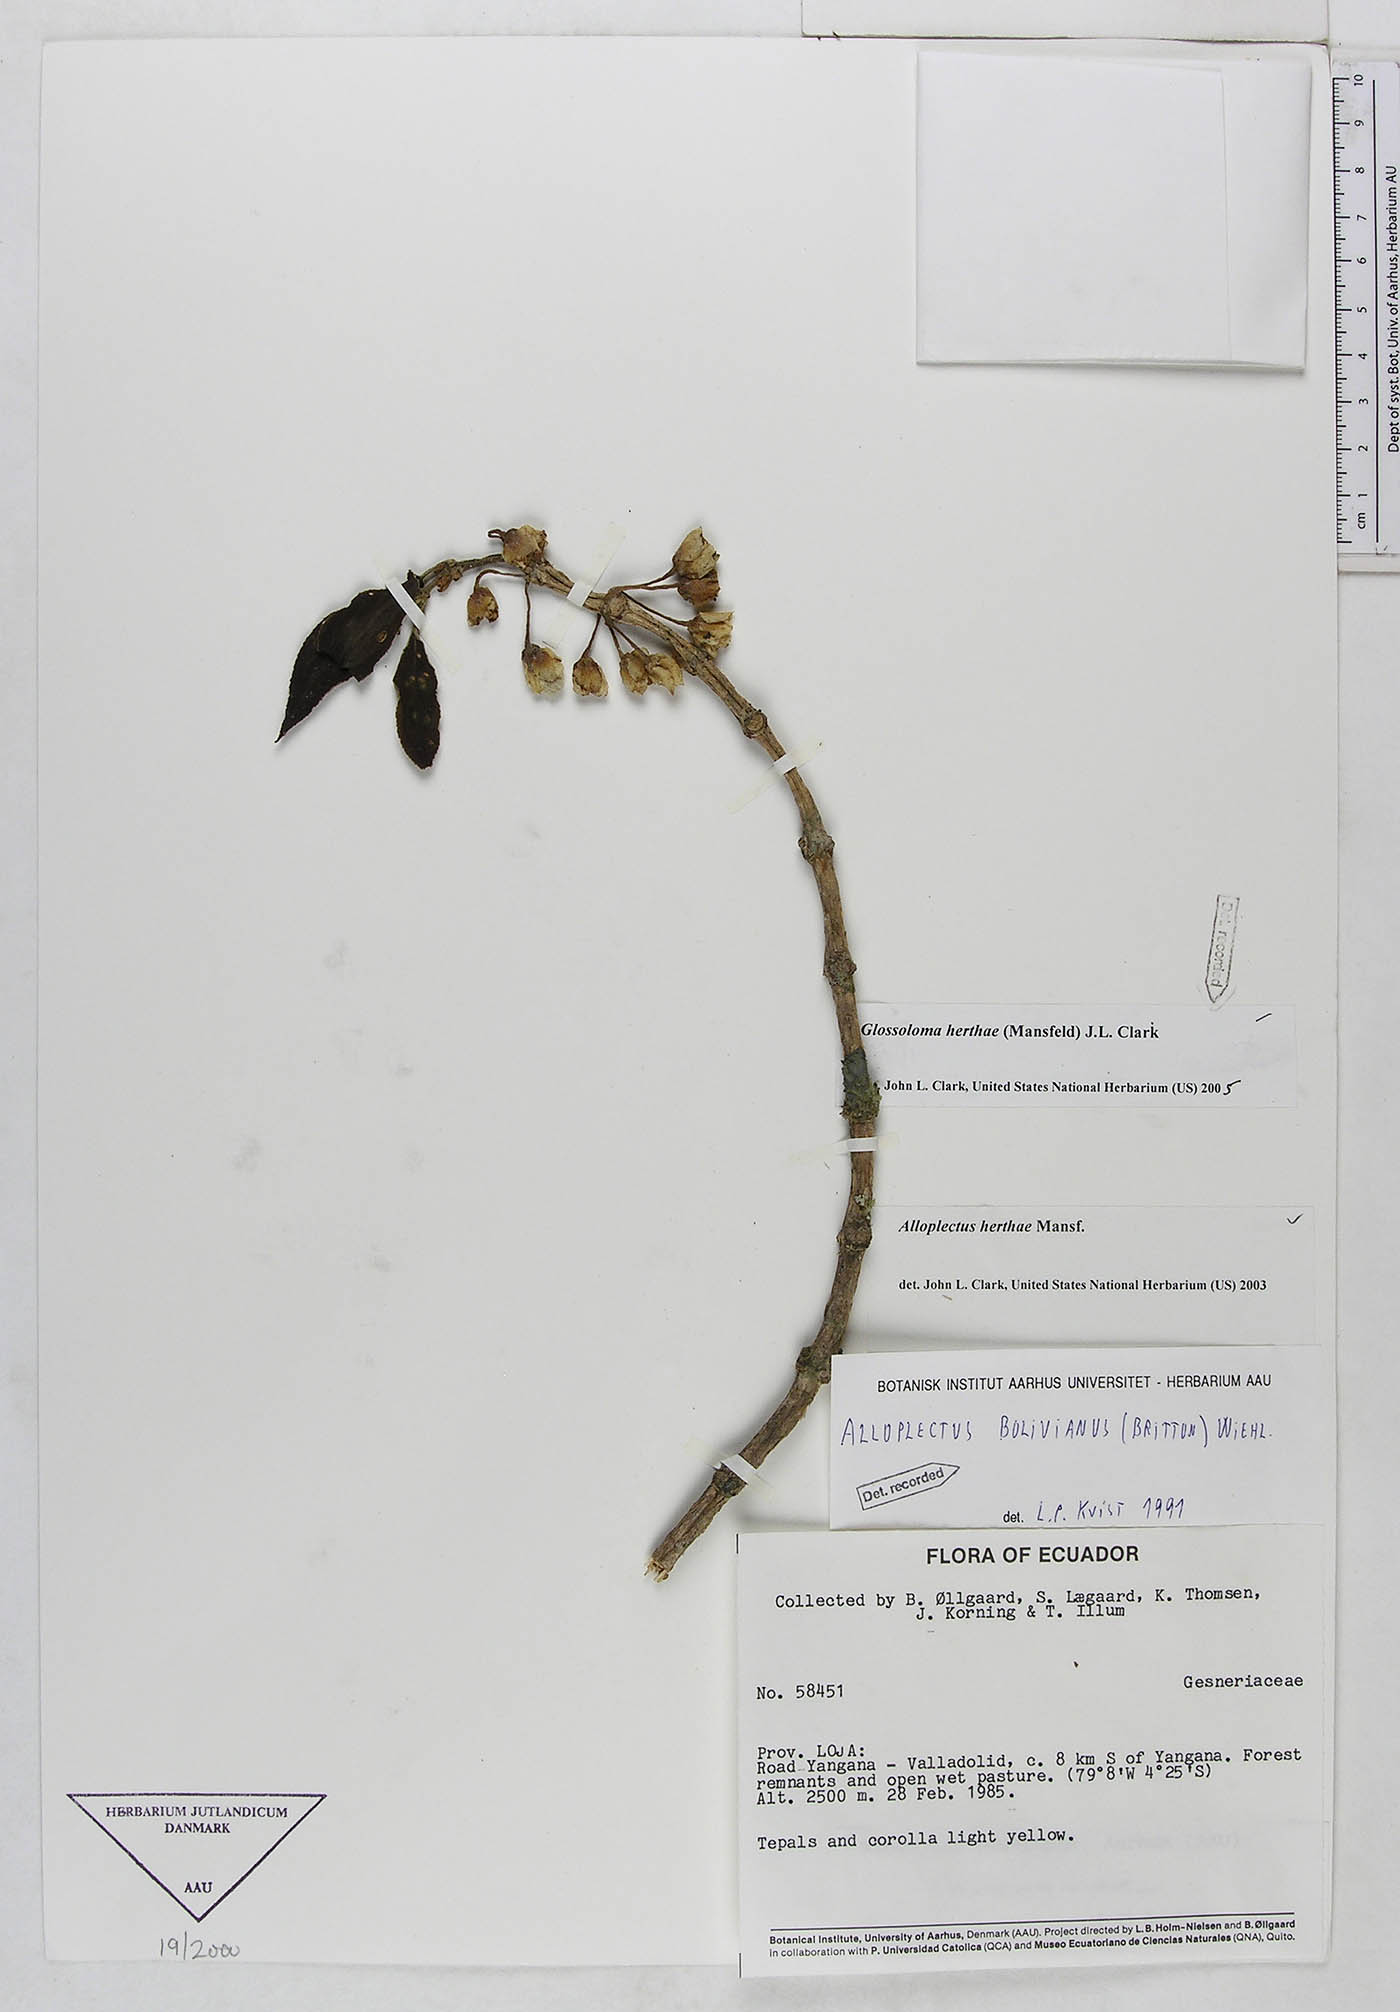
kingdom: Plantae
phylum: Tracheophyta
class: Magnoliopsida
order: Lamiales
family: Gesneriaceae
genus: Glossoloma
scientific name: Glossoloma herthae
